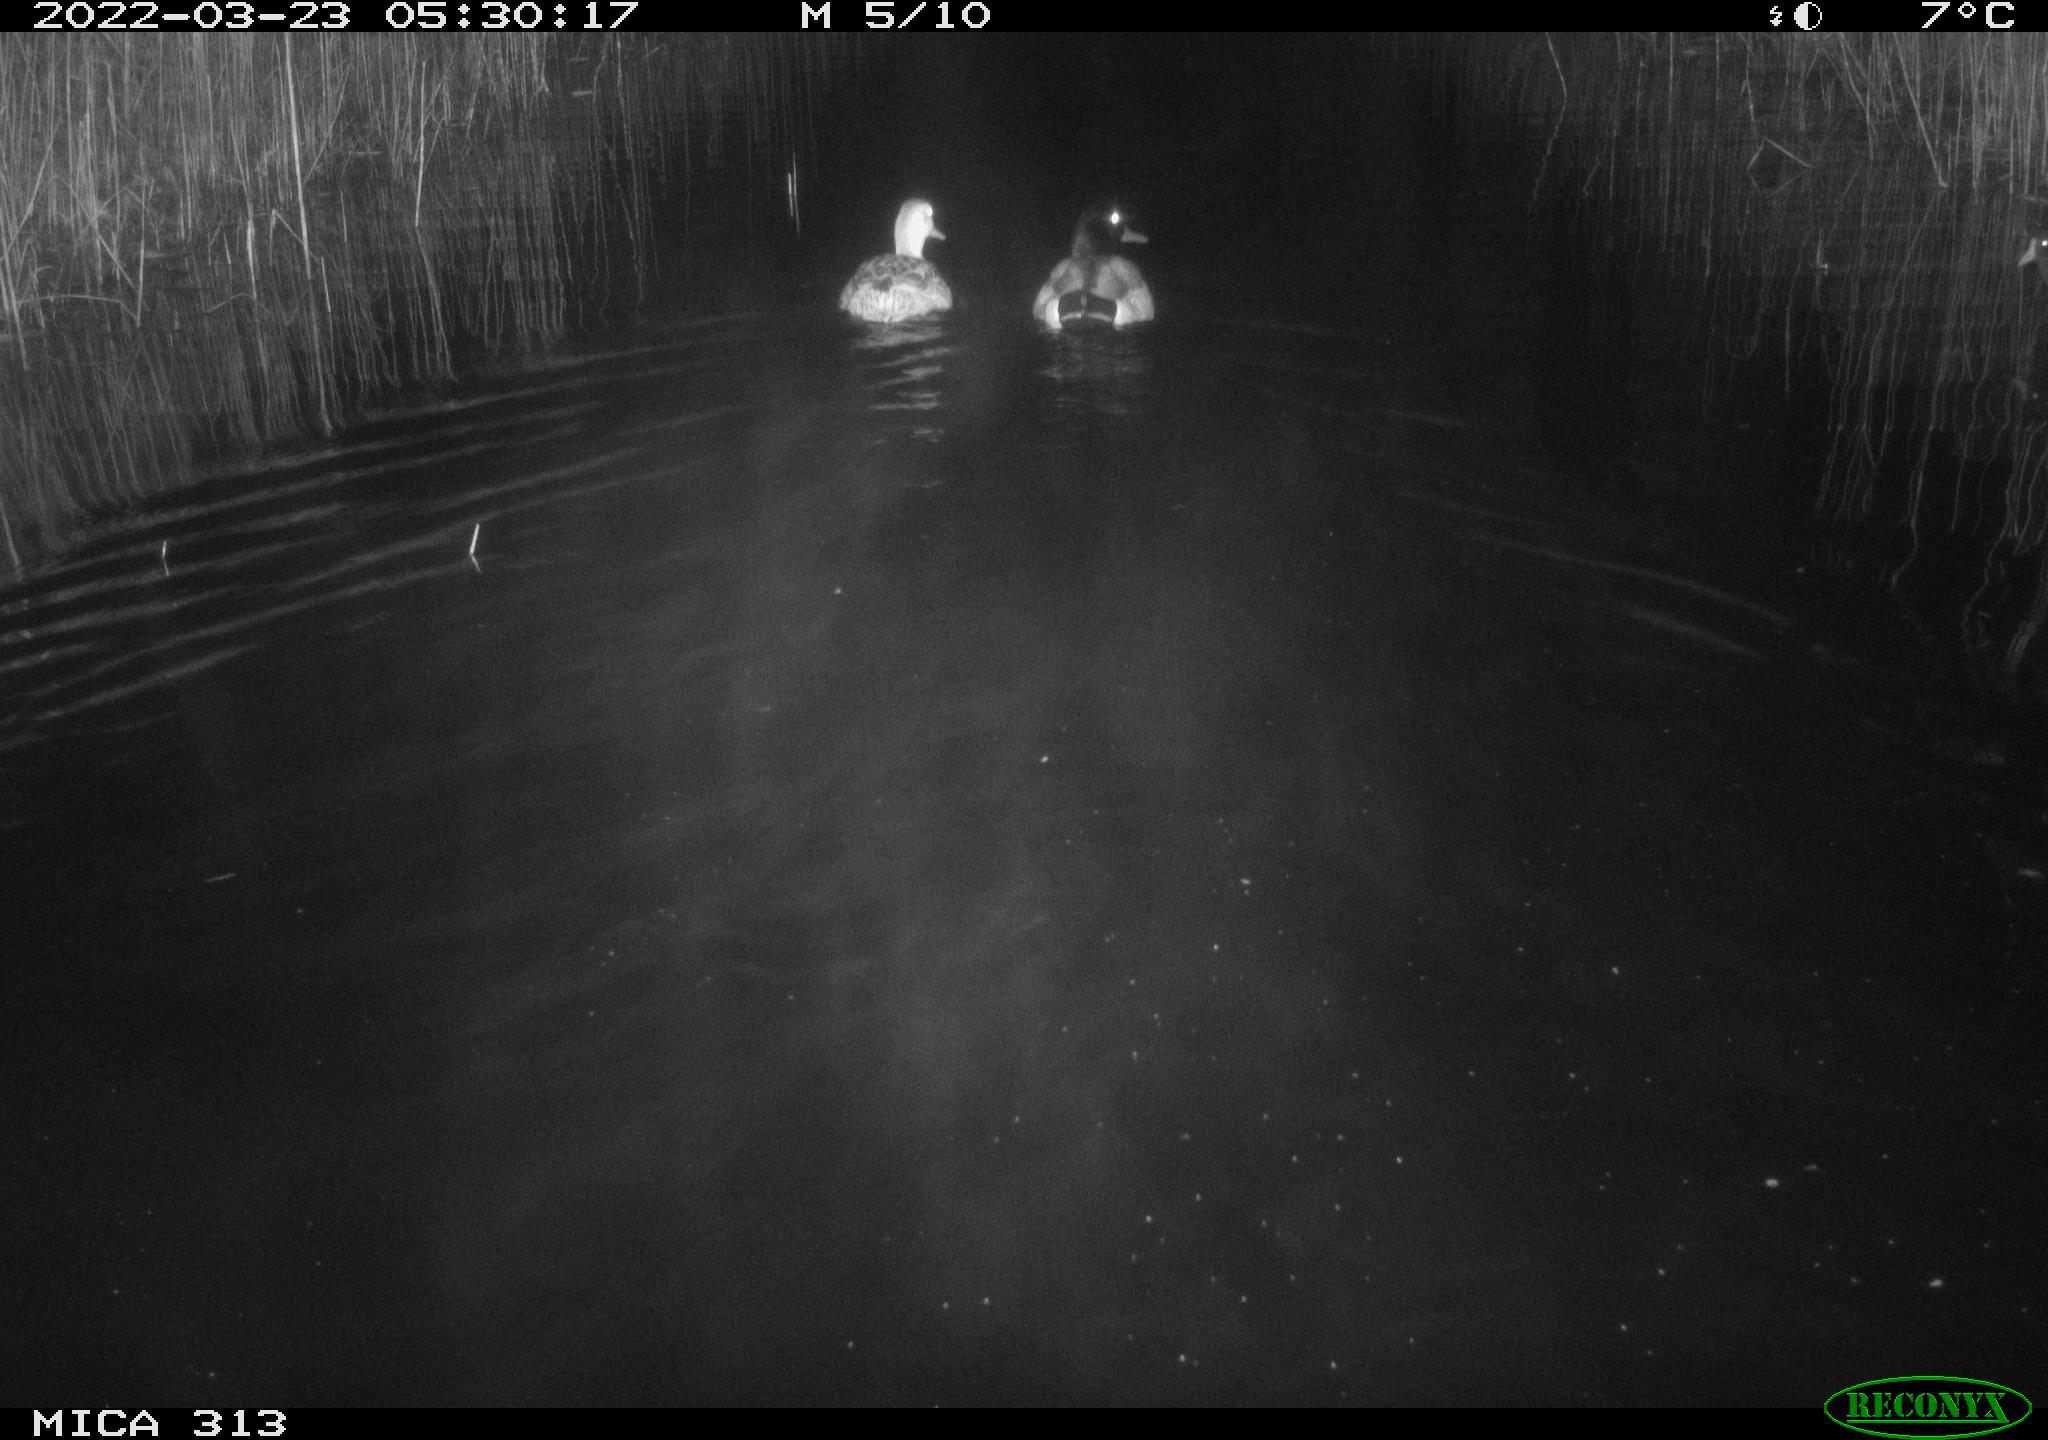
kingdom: Animalia
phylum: Chordata
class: Aves
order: Anseriformes
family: Anatidae
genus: Anas
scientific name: Anas platyrhynchos
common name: Mallard
